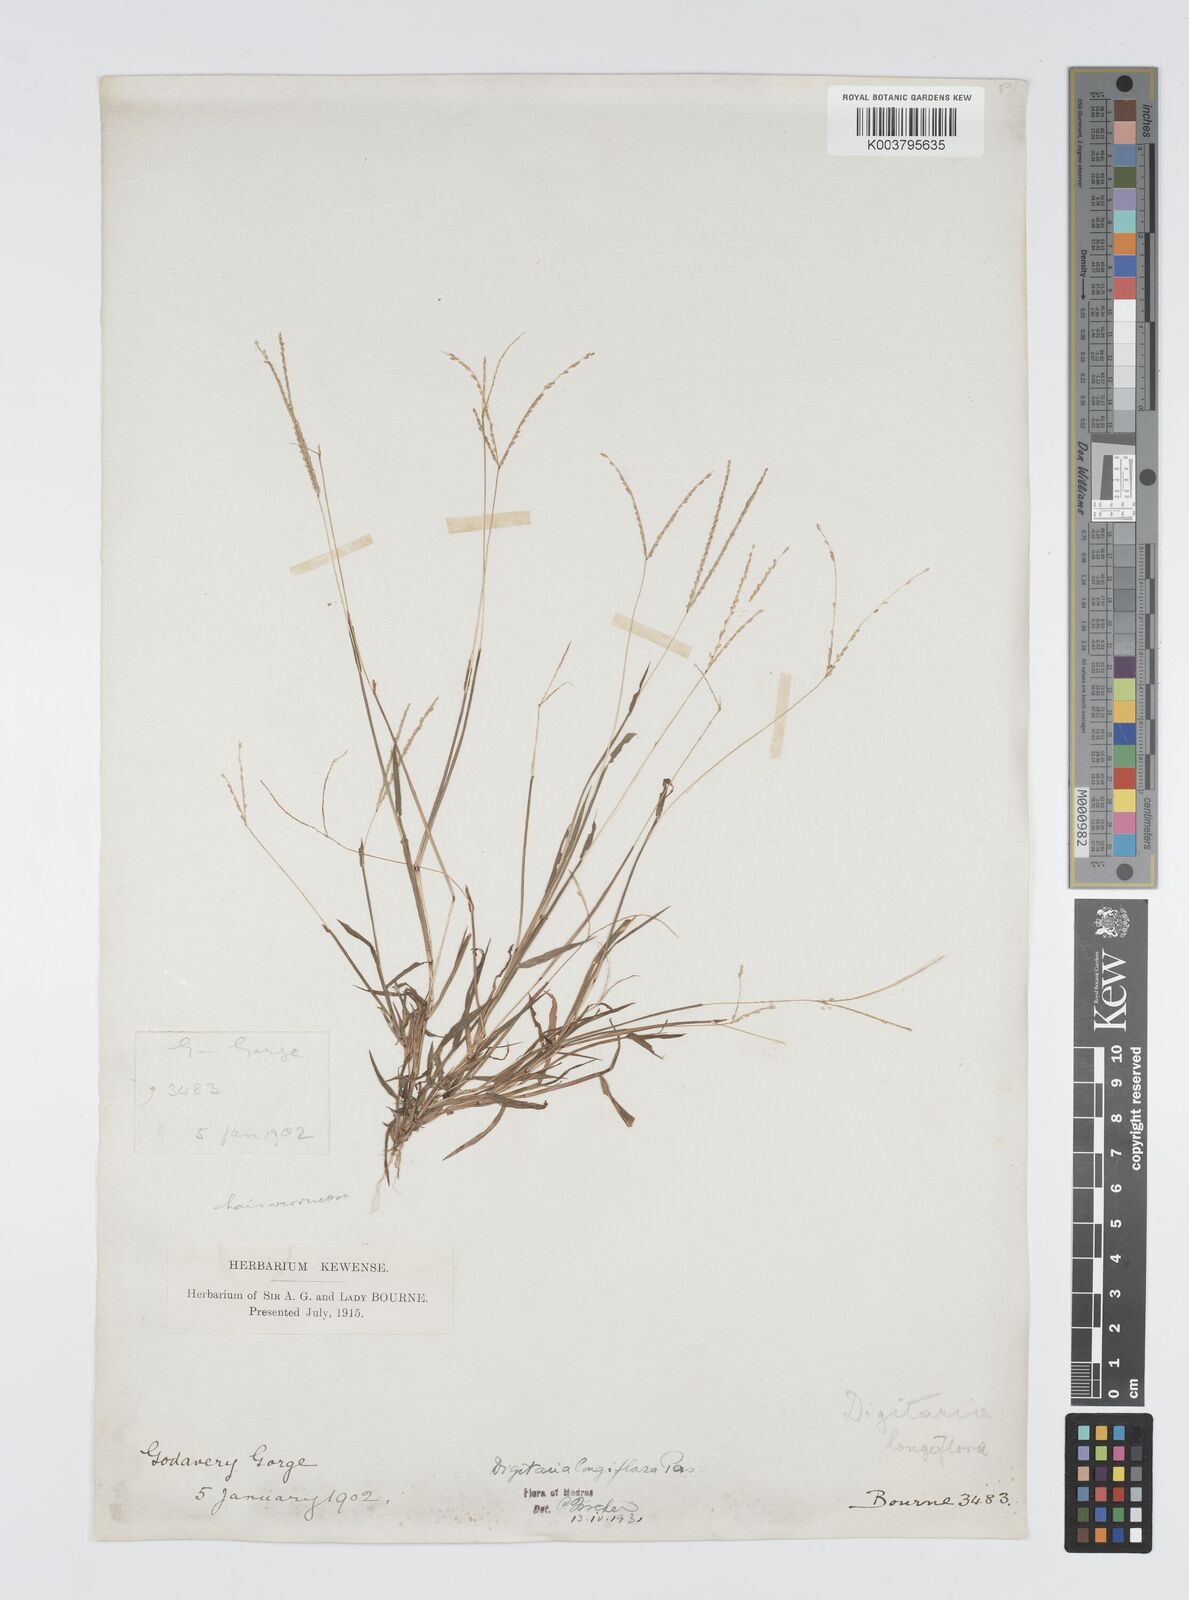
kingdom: Plantae
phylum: Tracheophyta
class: Liliopsida
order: Poales
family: Poaceae
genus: Digitaria
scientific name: Digitaria longiflora
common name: Wire crabgrass
